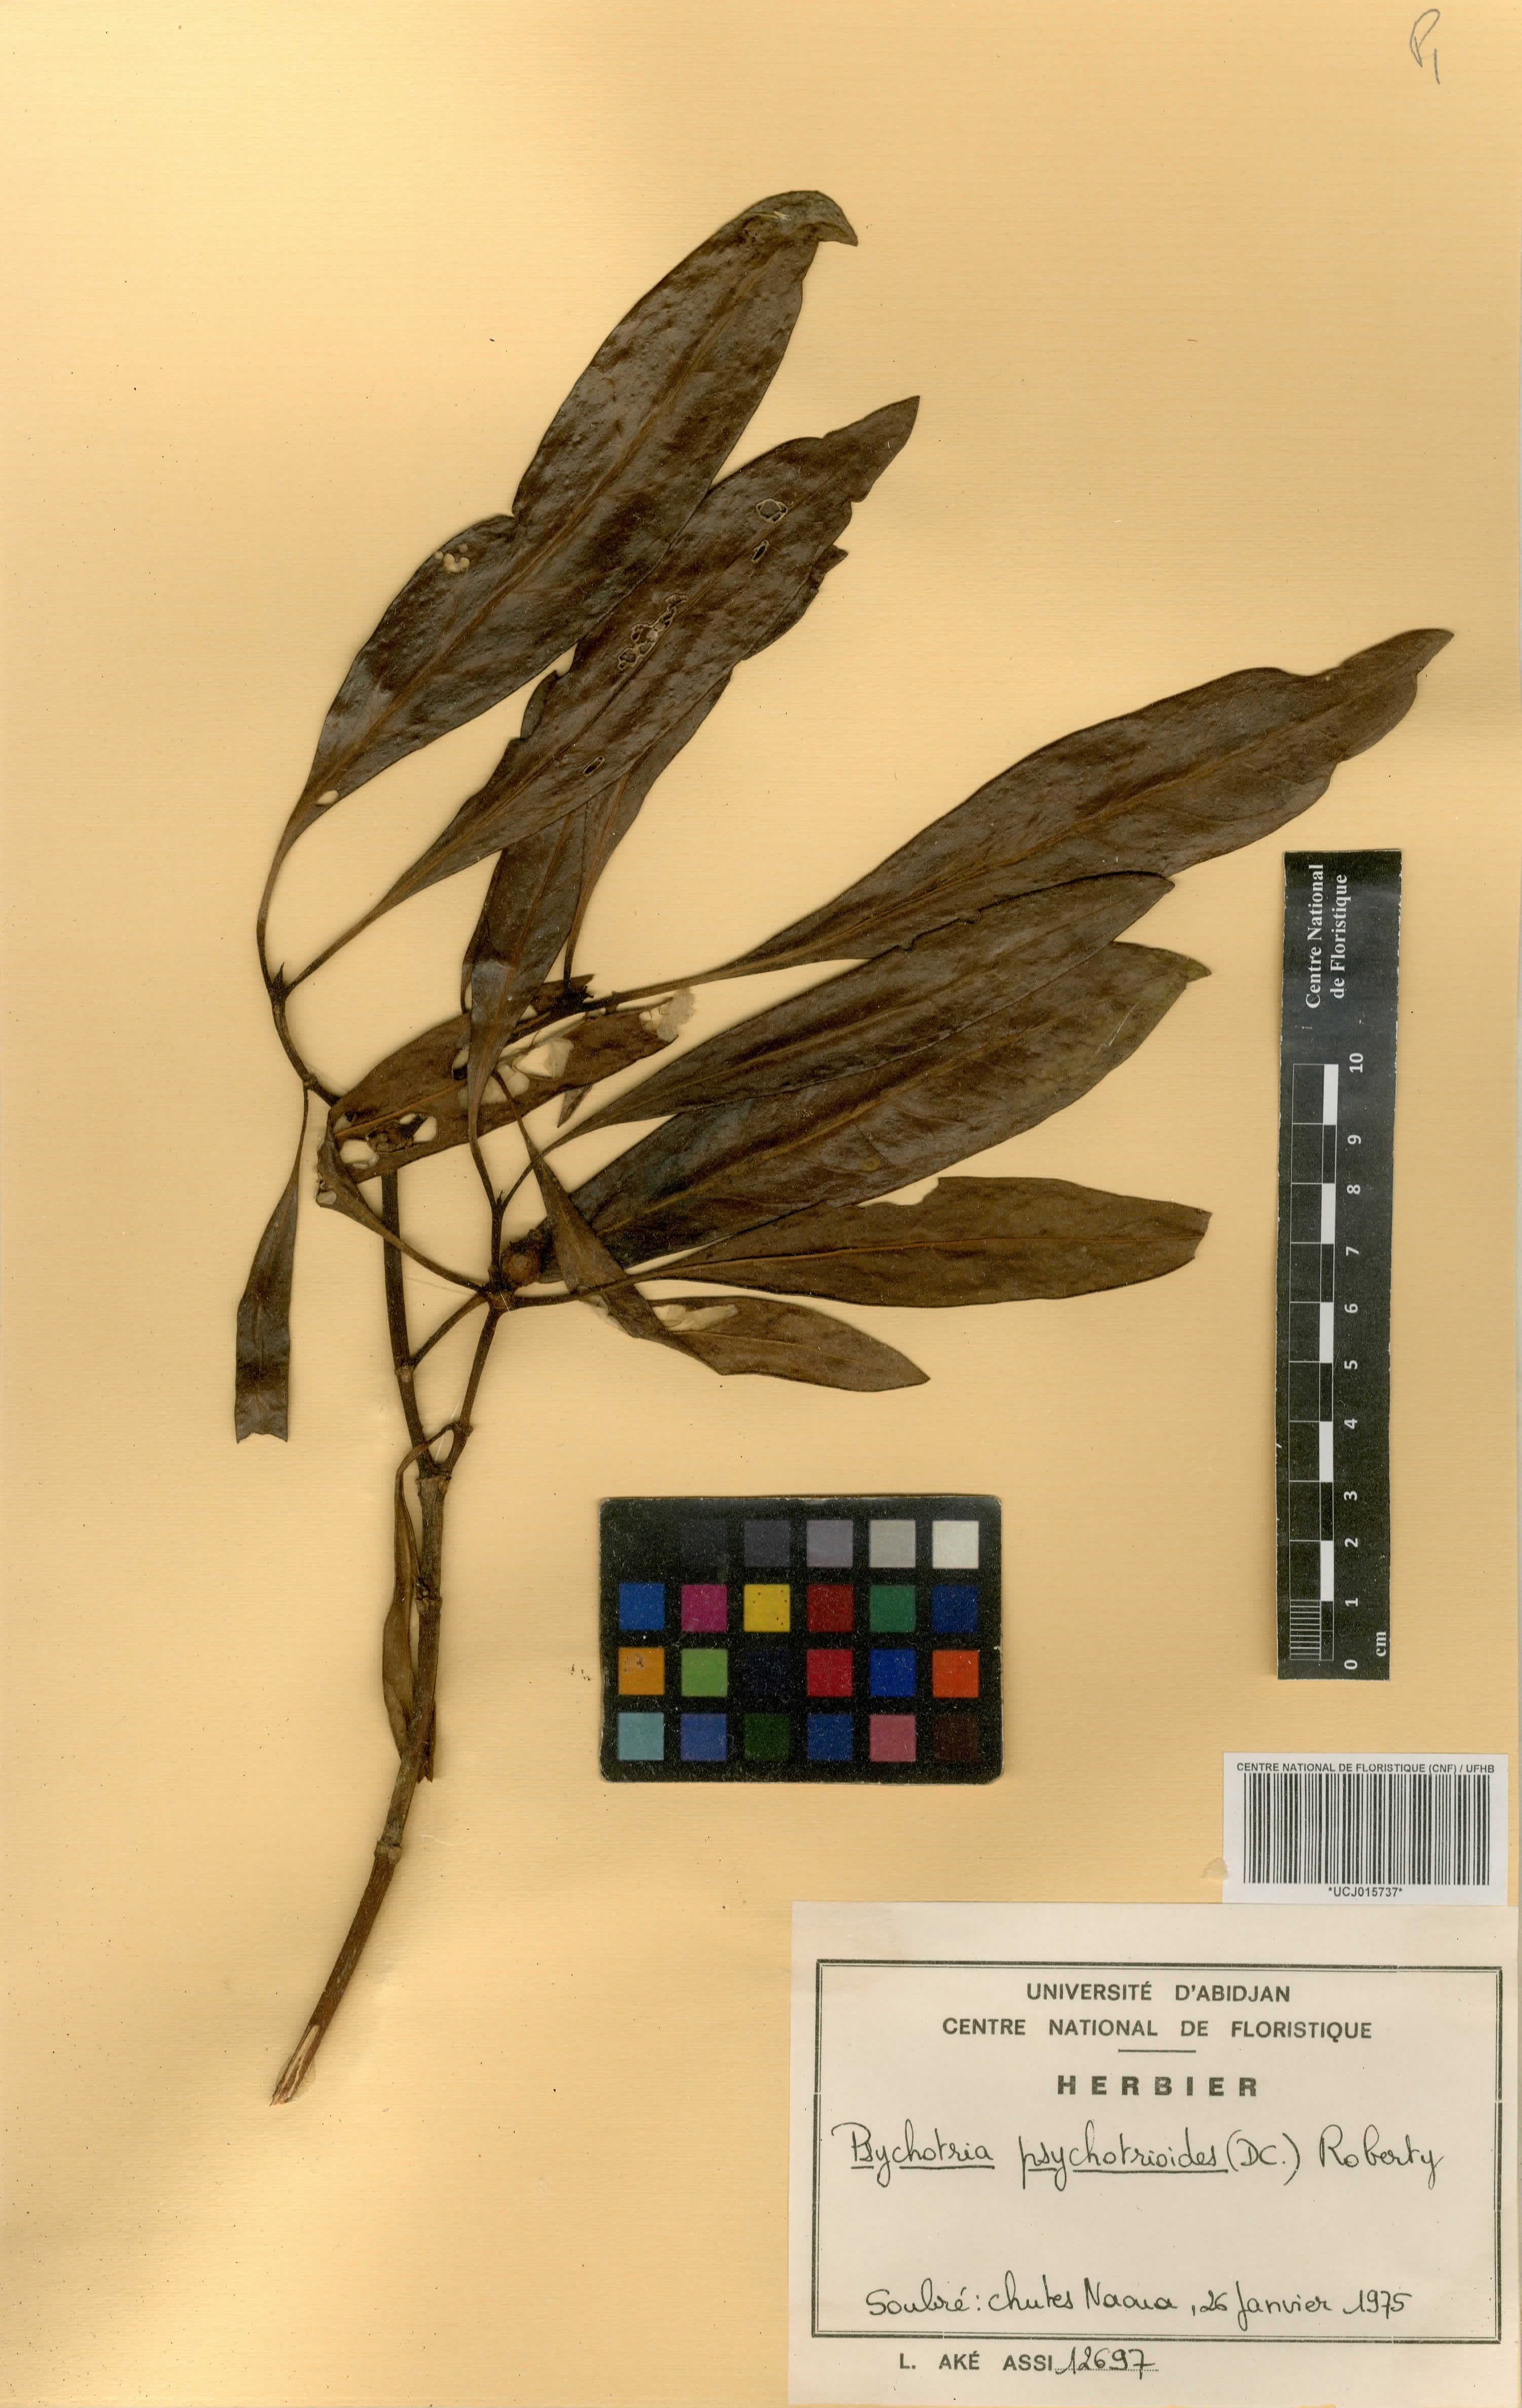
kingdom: Plantae
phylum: Tracheophyta
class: Magnoliopsida
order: Gentianales
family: Rubiaceae
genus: Psychotria
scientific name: Psychotria psychotrioides
